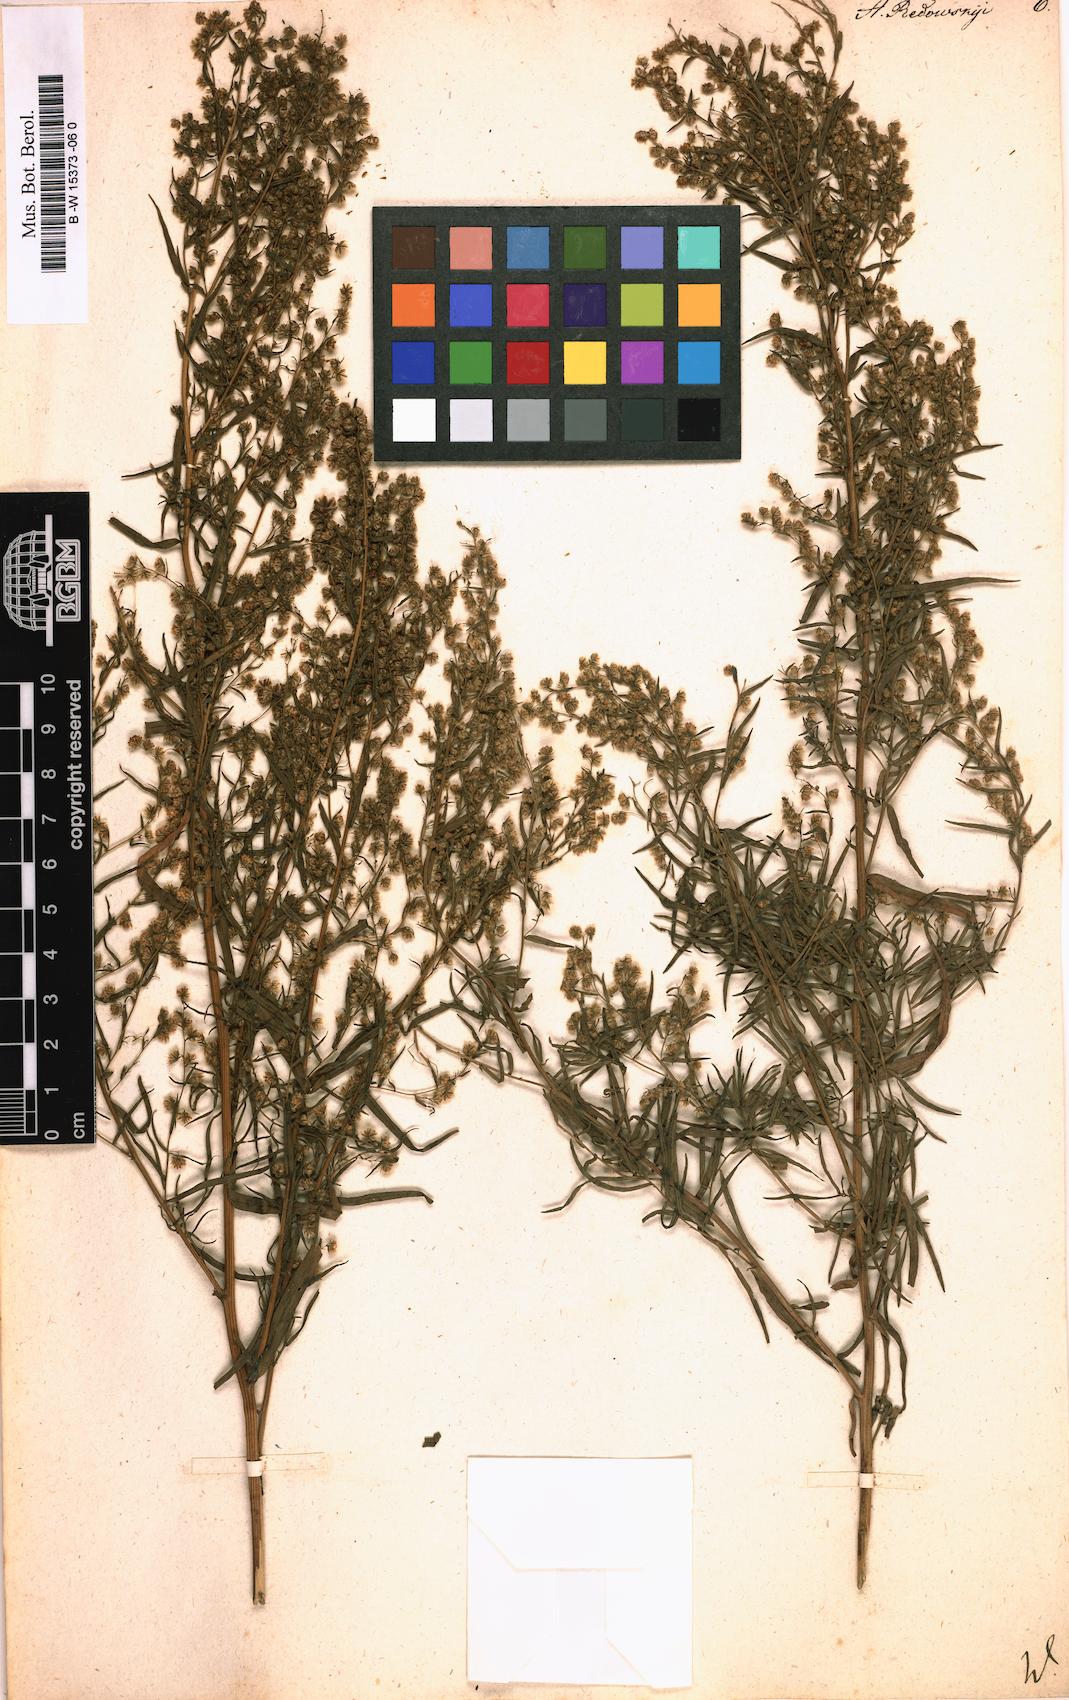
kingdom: Plantae
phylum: Tracheophyta
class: Magnoliopsida
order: Asterales
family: Asteraceae
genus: Artemisia
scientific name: Artemisia dracunculus
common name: Tarragon
